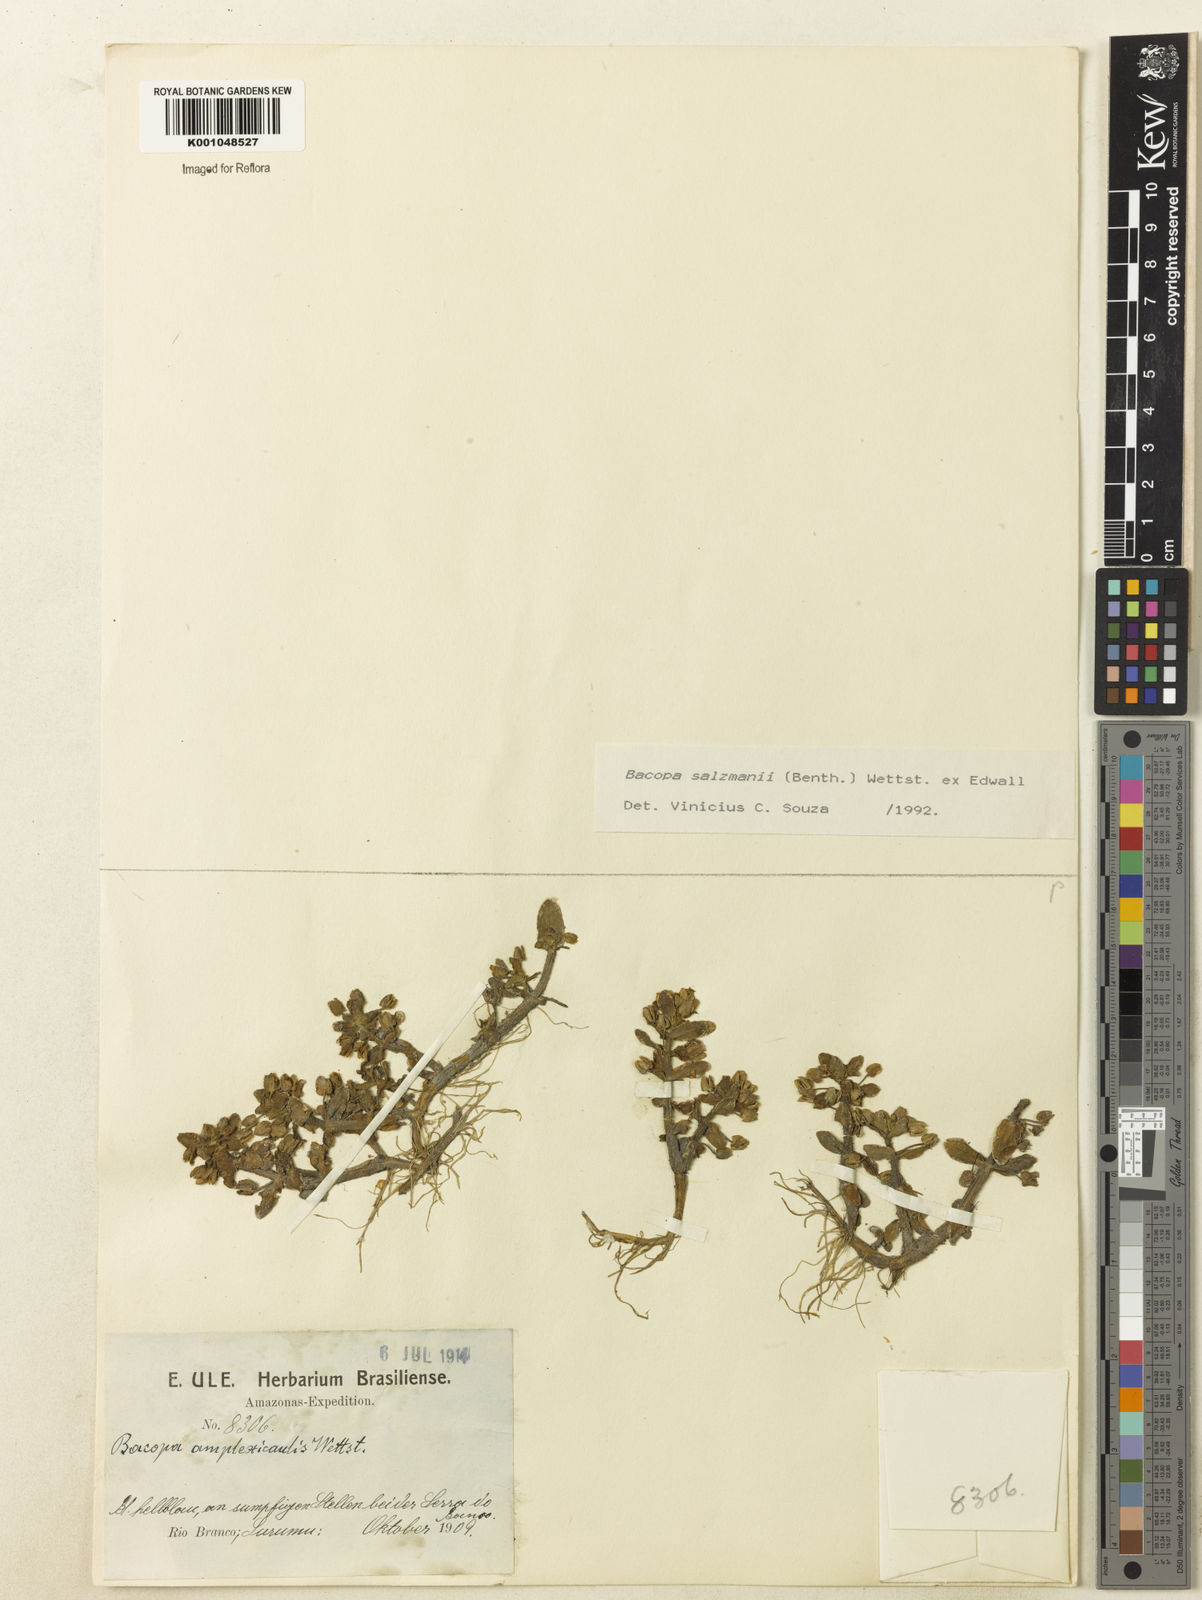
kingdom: Plantae
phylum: Tracheophyta
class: Magnoliopsida
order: Lamiales
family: Plantaginaceae
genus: Bacopa
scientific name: Bacopa salzmannii
